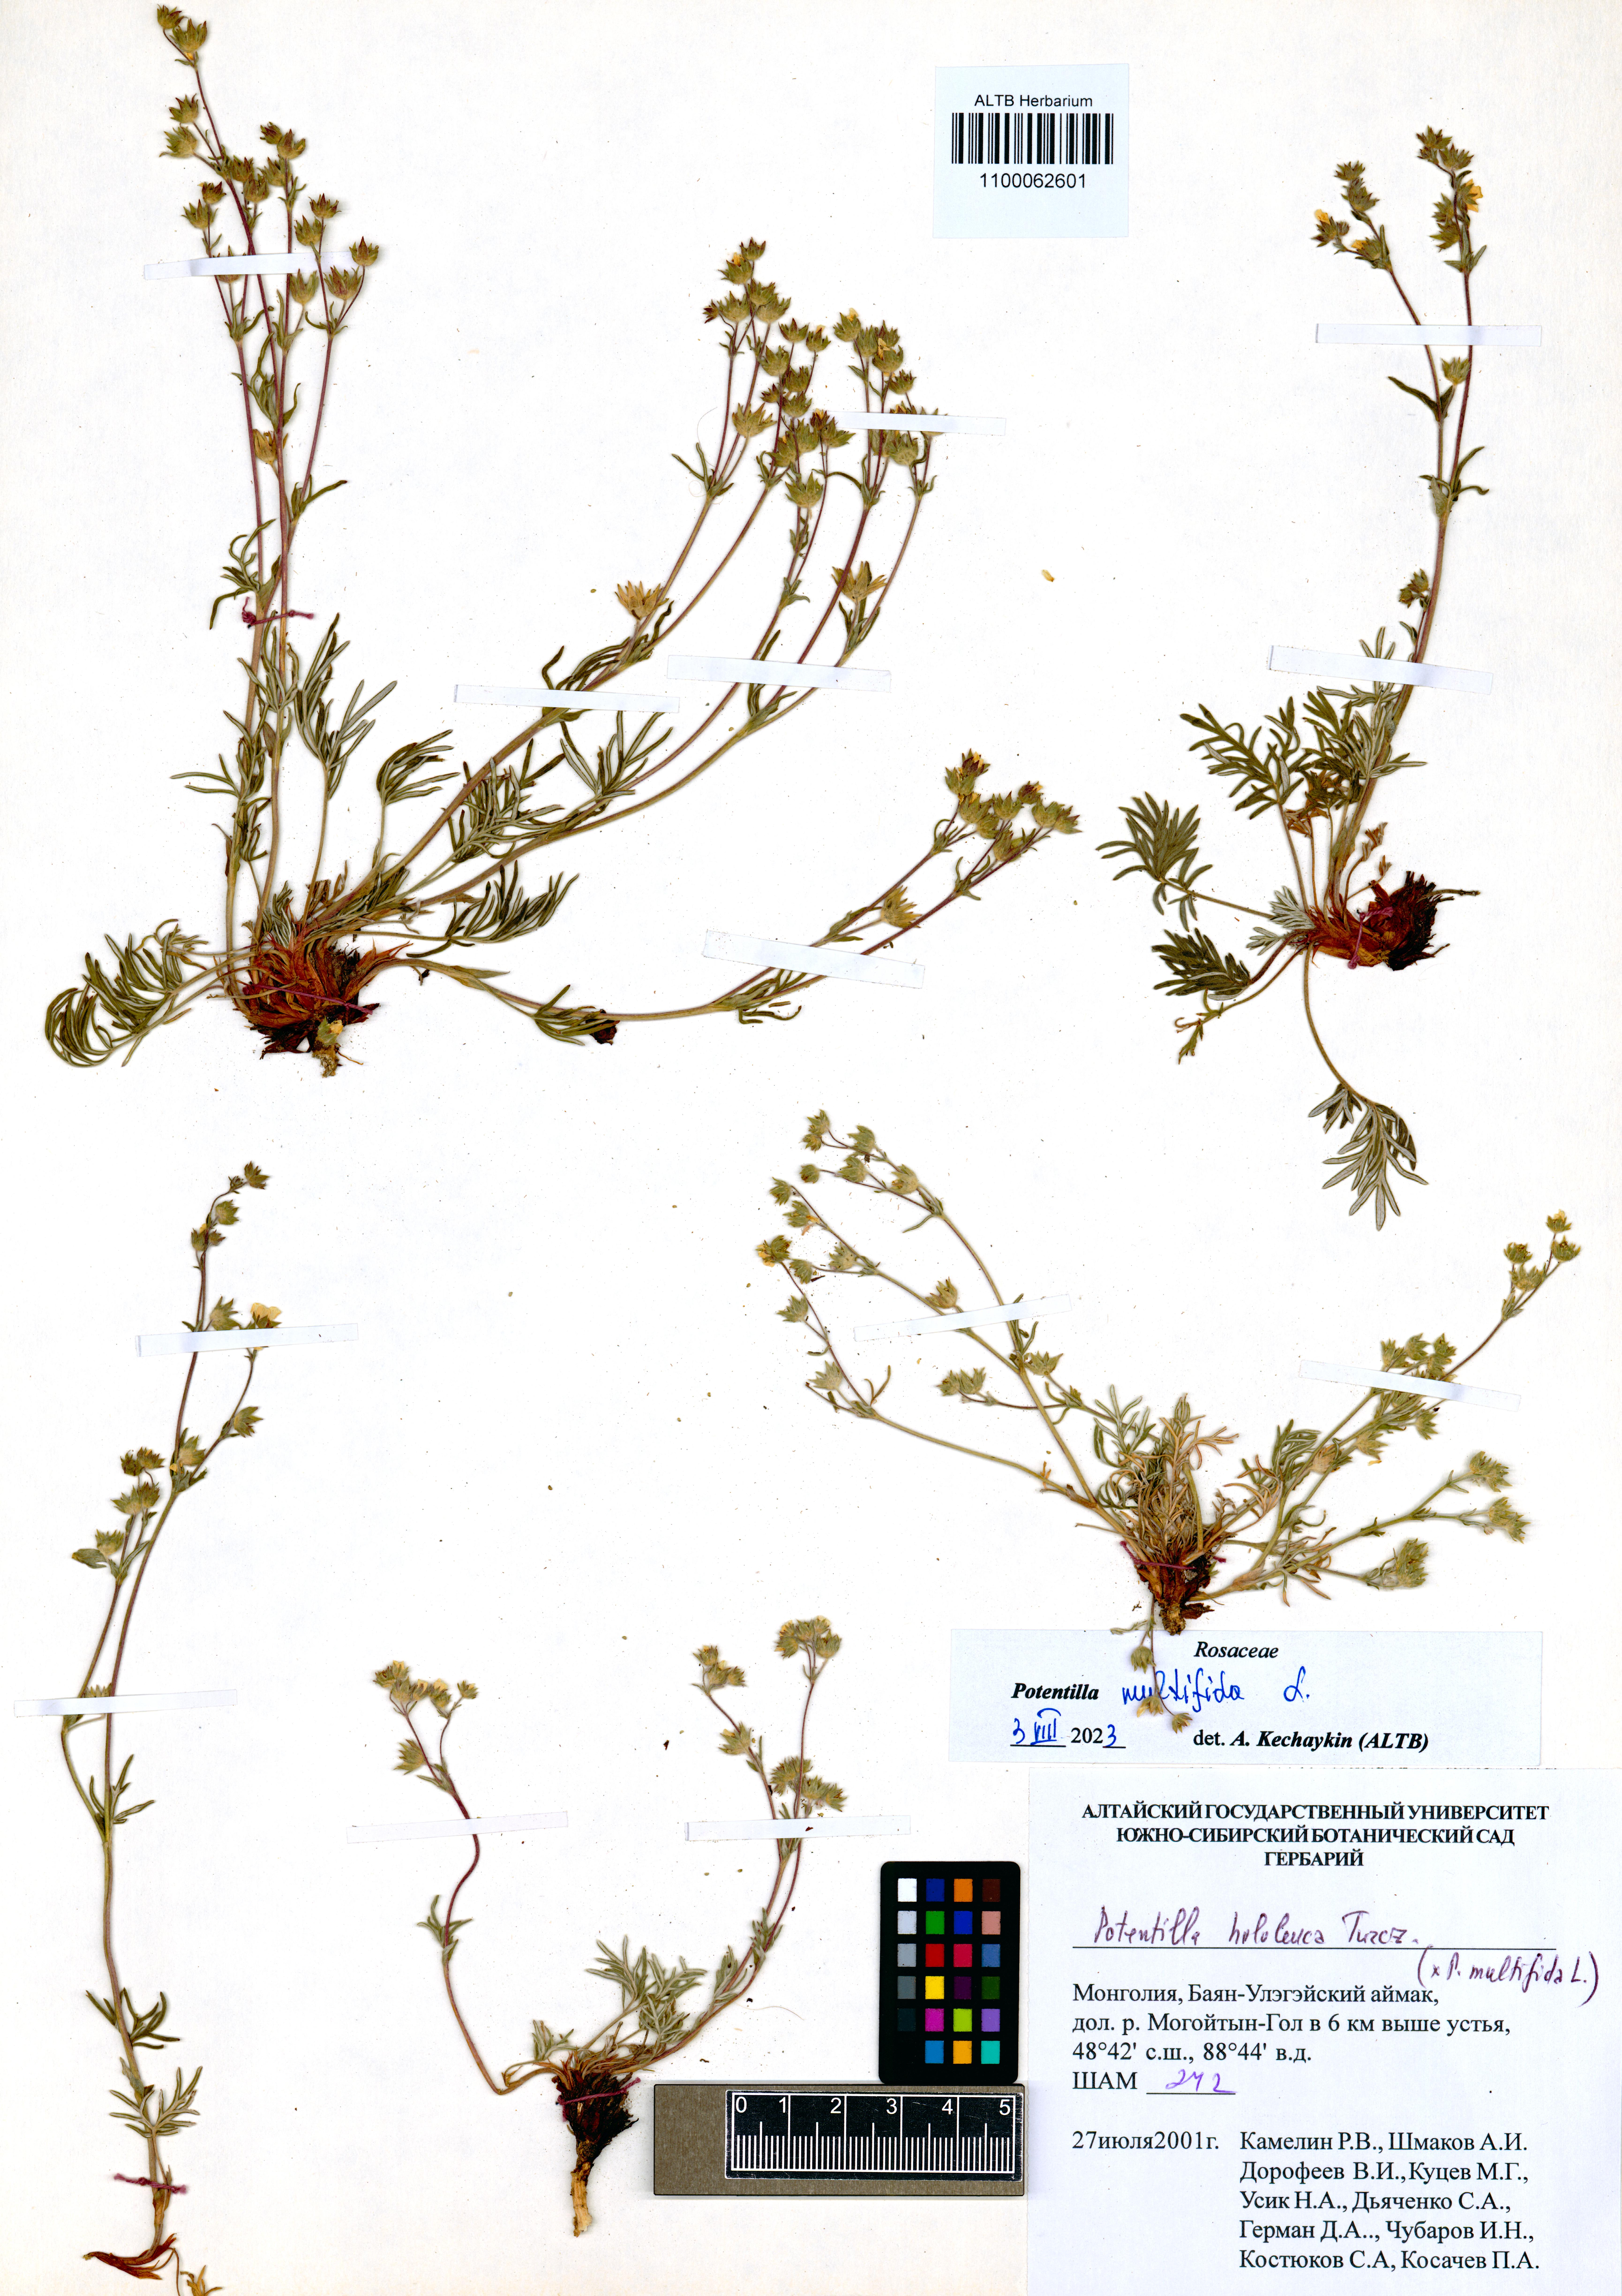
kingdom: Plantae
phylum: Tracheophyta
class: Magnoliopsida
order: Rosales
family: Rosaceae
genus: Potentilla
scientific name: Potentilla multifida
